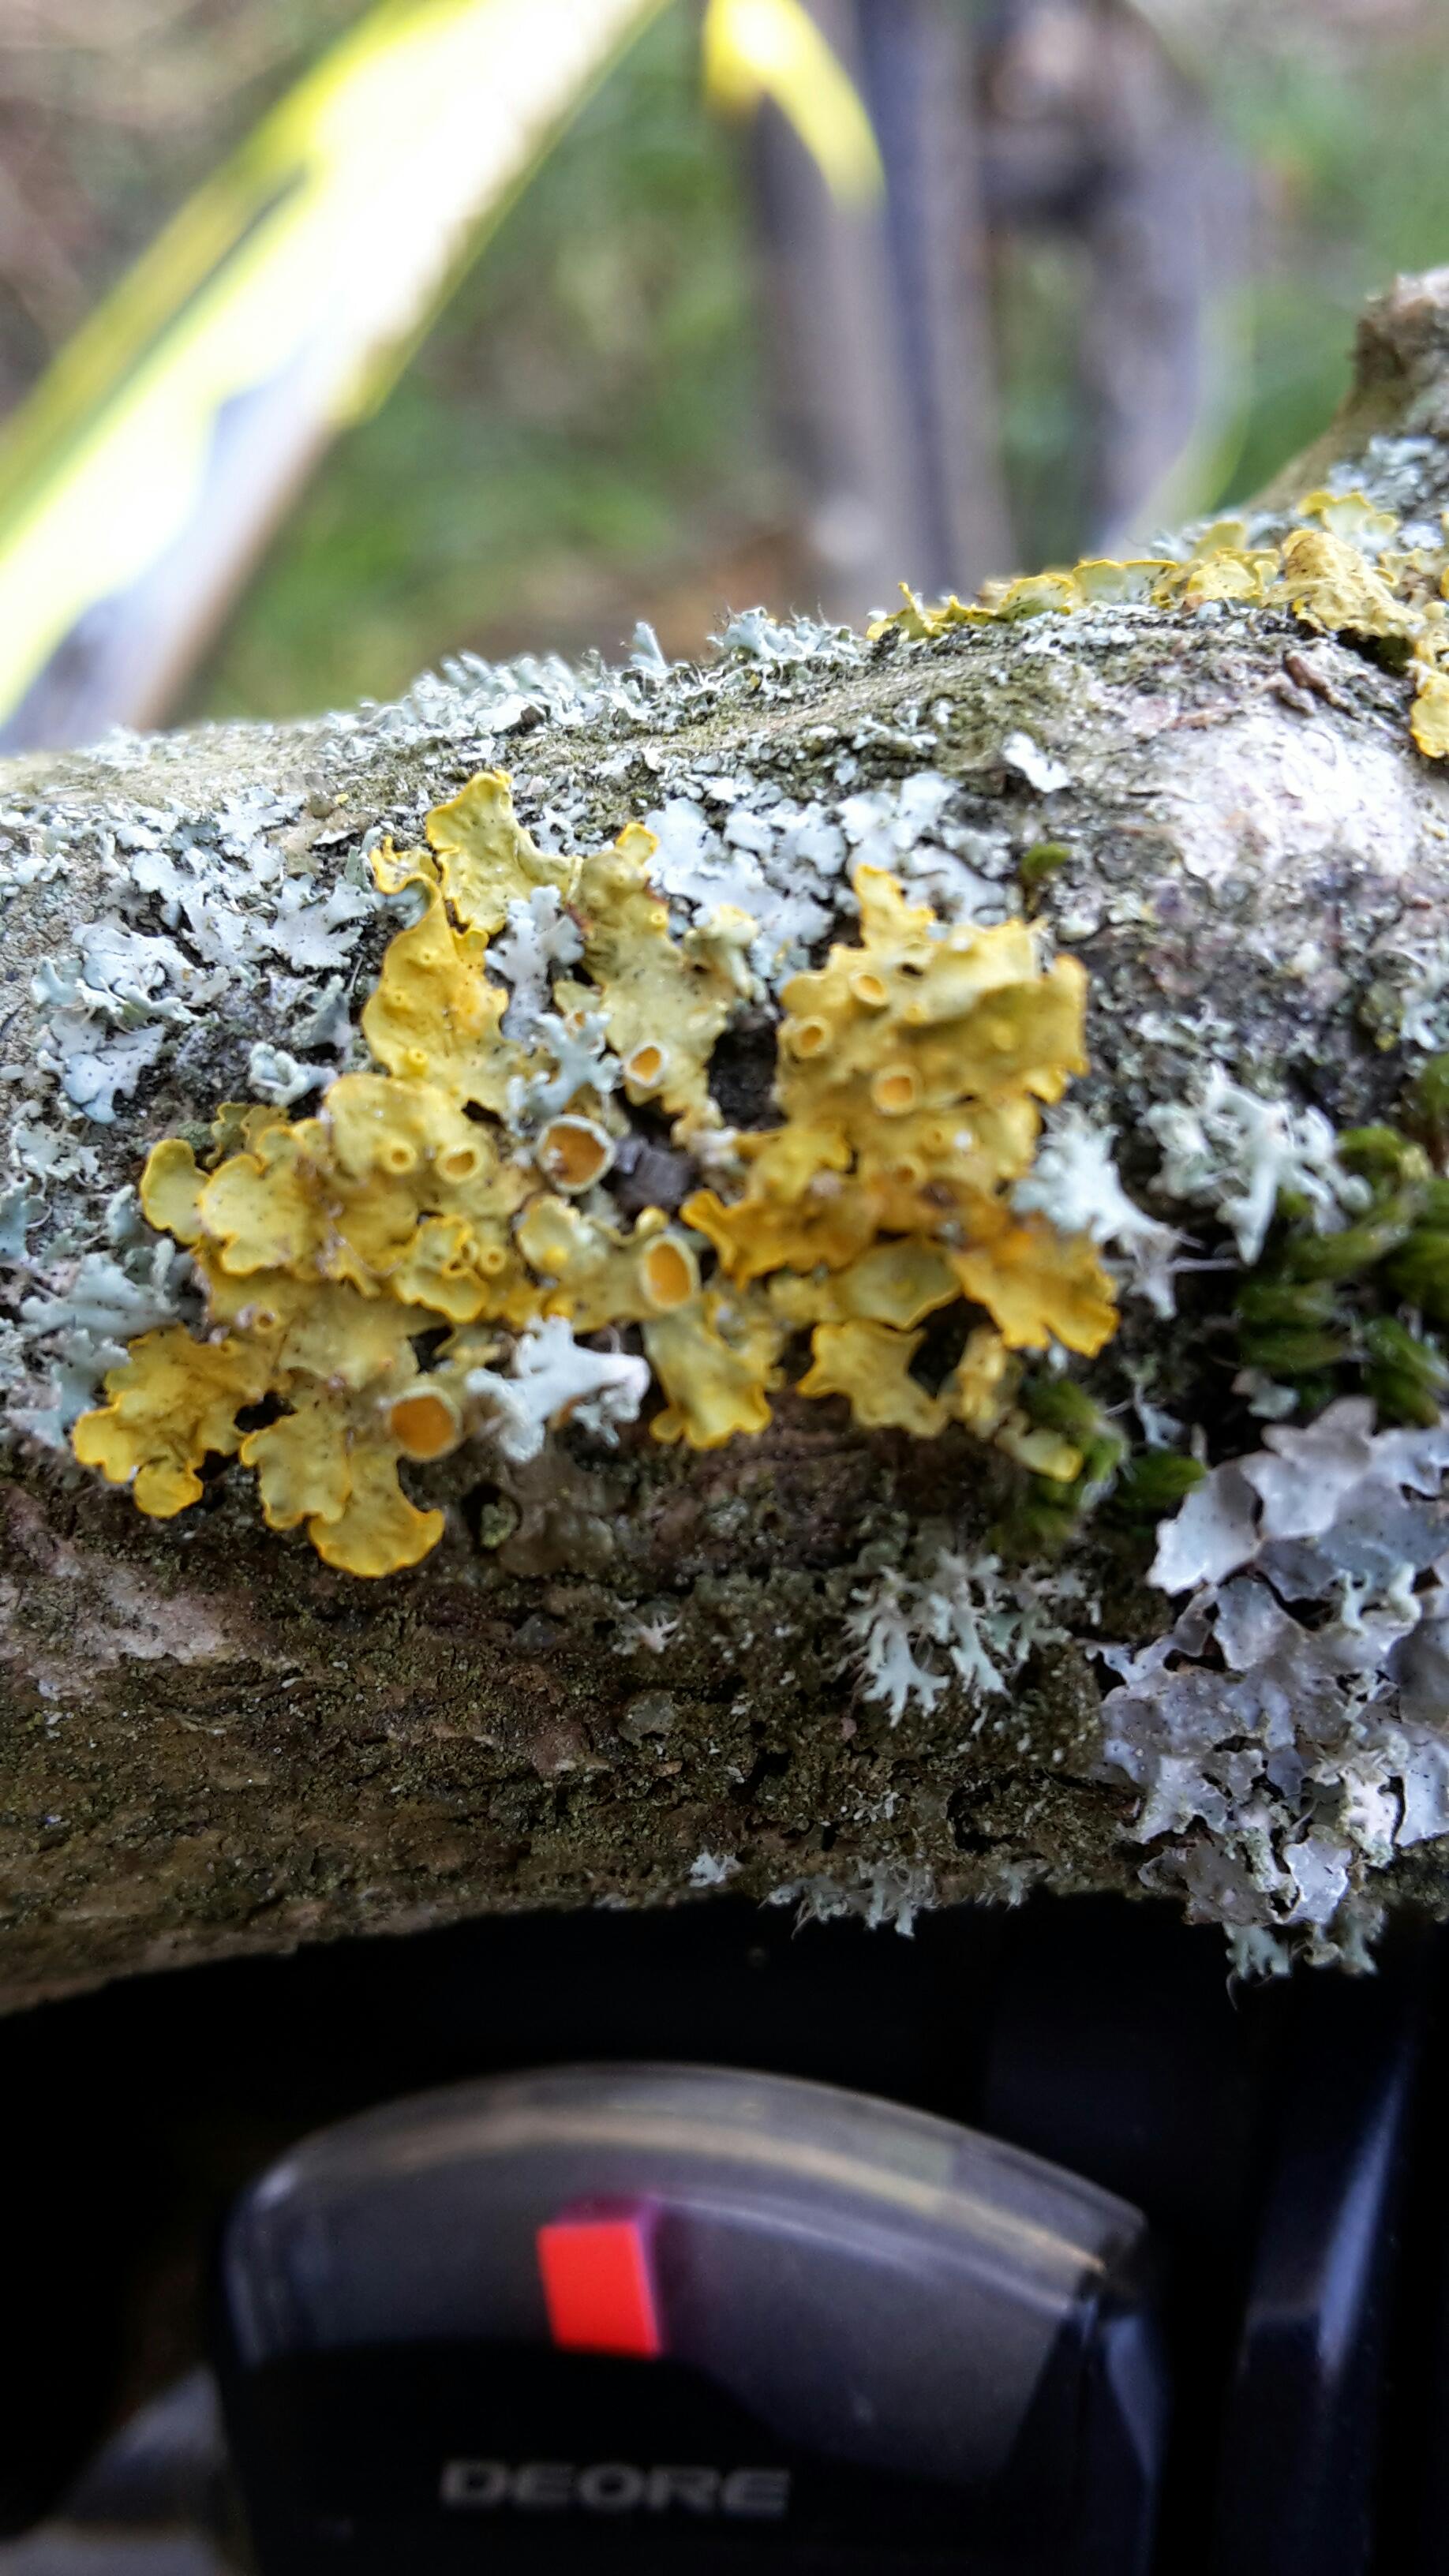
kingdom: Fungi
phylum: Ascomycota
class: Lecanoromycetes
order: Teloschistales
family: Teloschistaceae
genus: Xanthoria
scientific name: Xanthoria parietina
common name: almindelig væggelav
